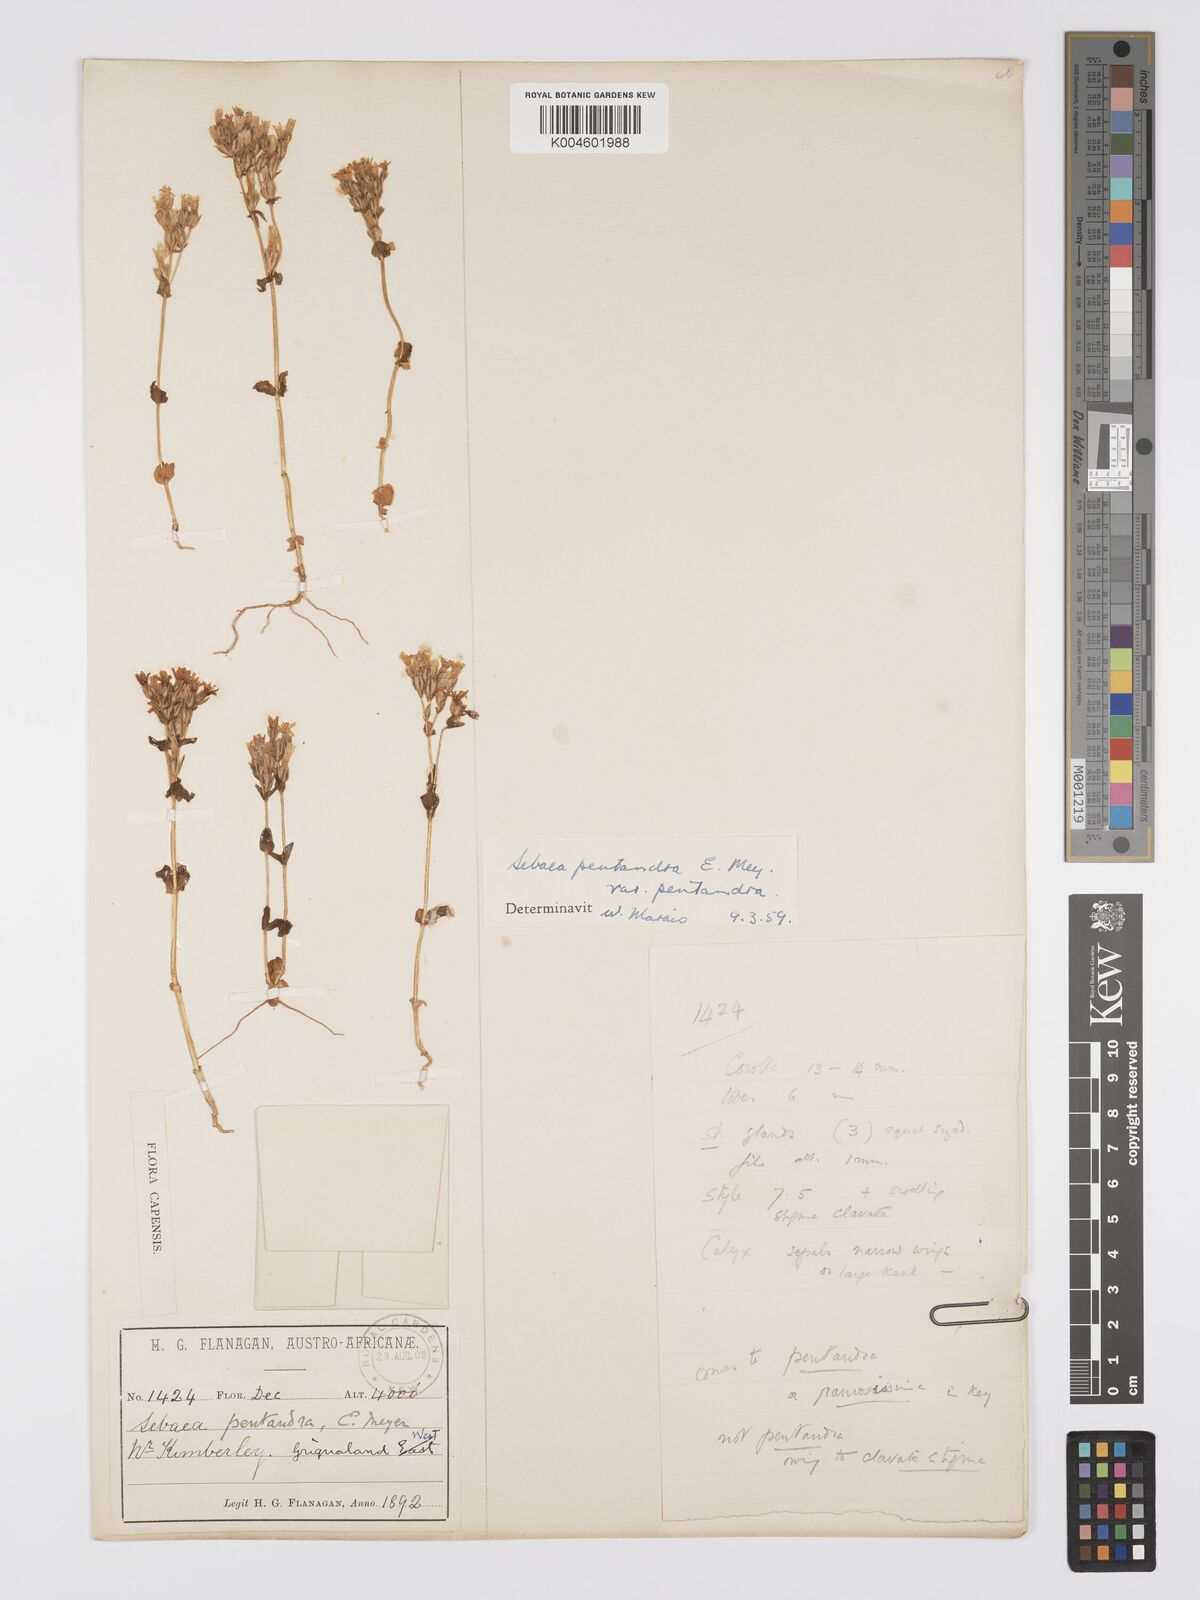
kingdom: Plantae
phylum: Tracheophyta
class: Magnoliopsida
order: Gentianales
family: Gentianaceae
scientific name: Gentianaceae
